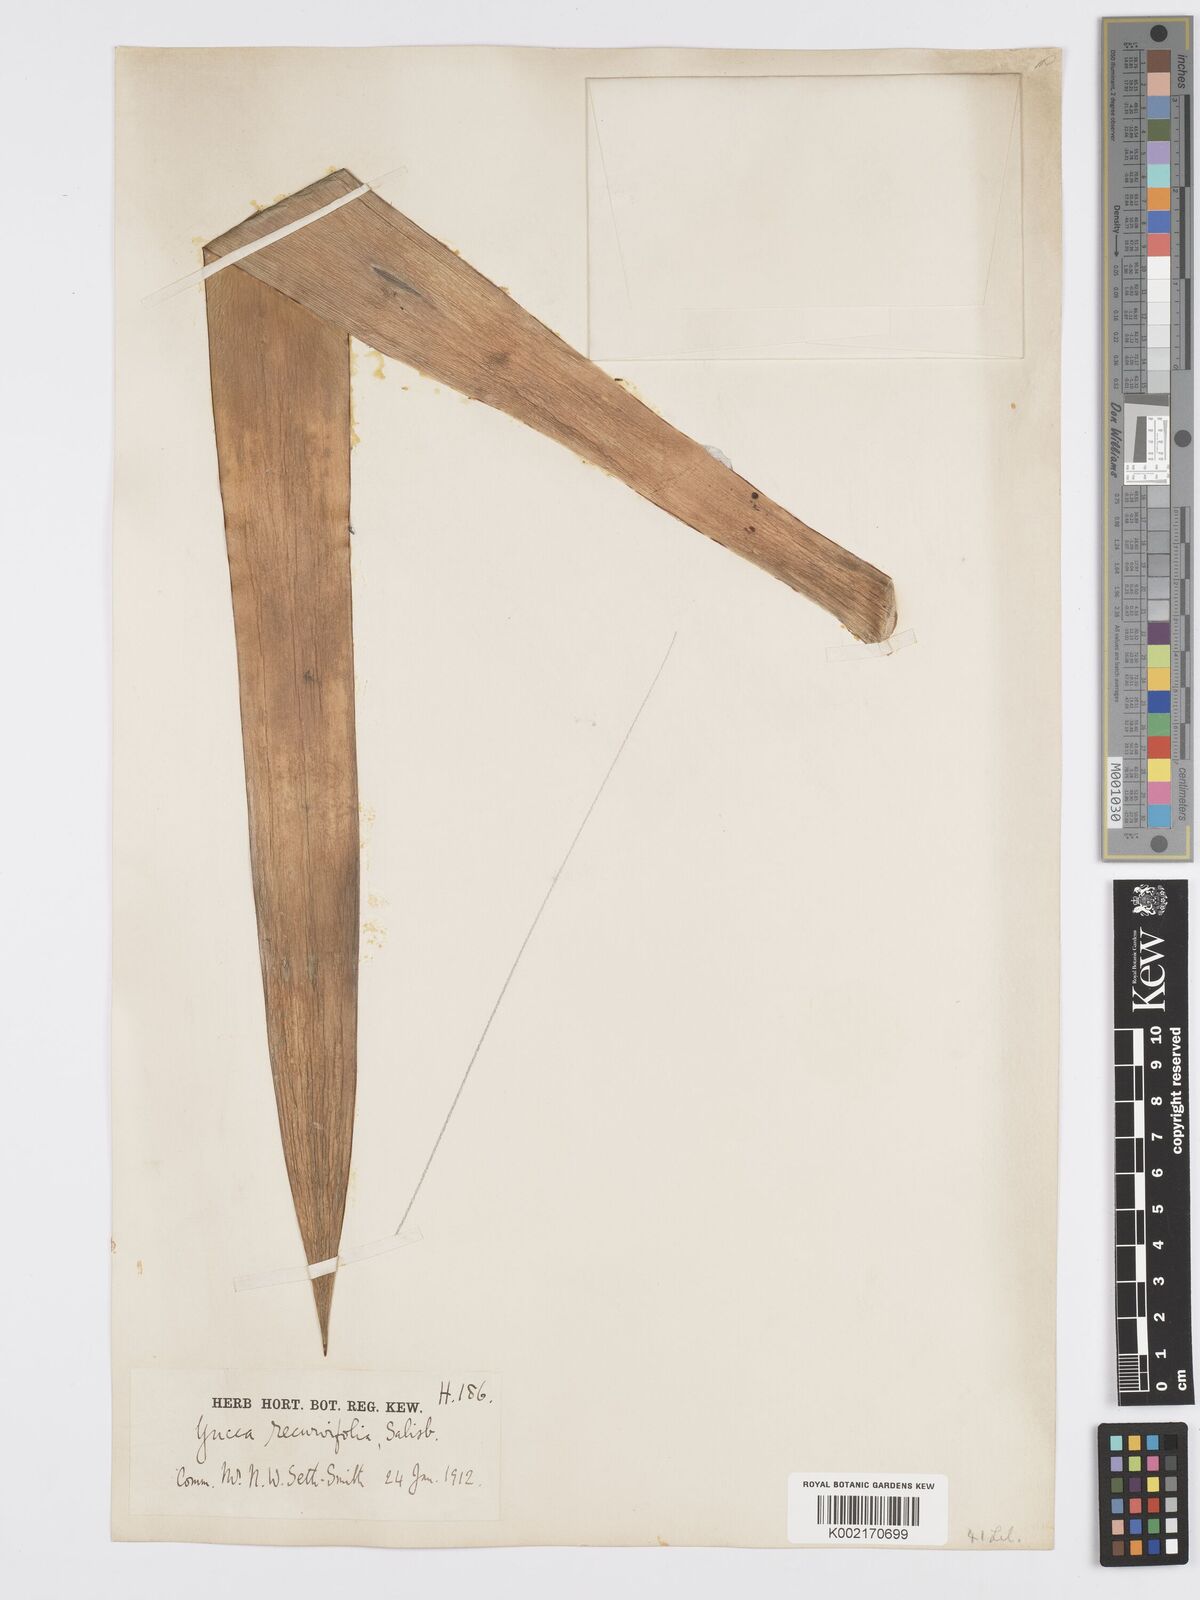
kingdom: Plantae
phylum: Tracheophyta
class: Liliopsida
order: Asparagales
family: Asparagaceae
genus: Yucca
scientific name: Yucca gloriosa
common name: Spanish-dagger
